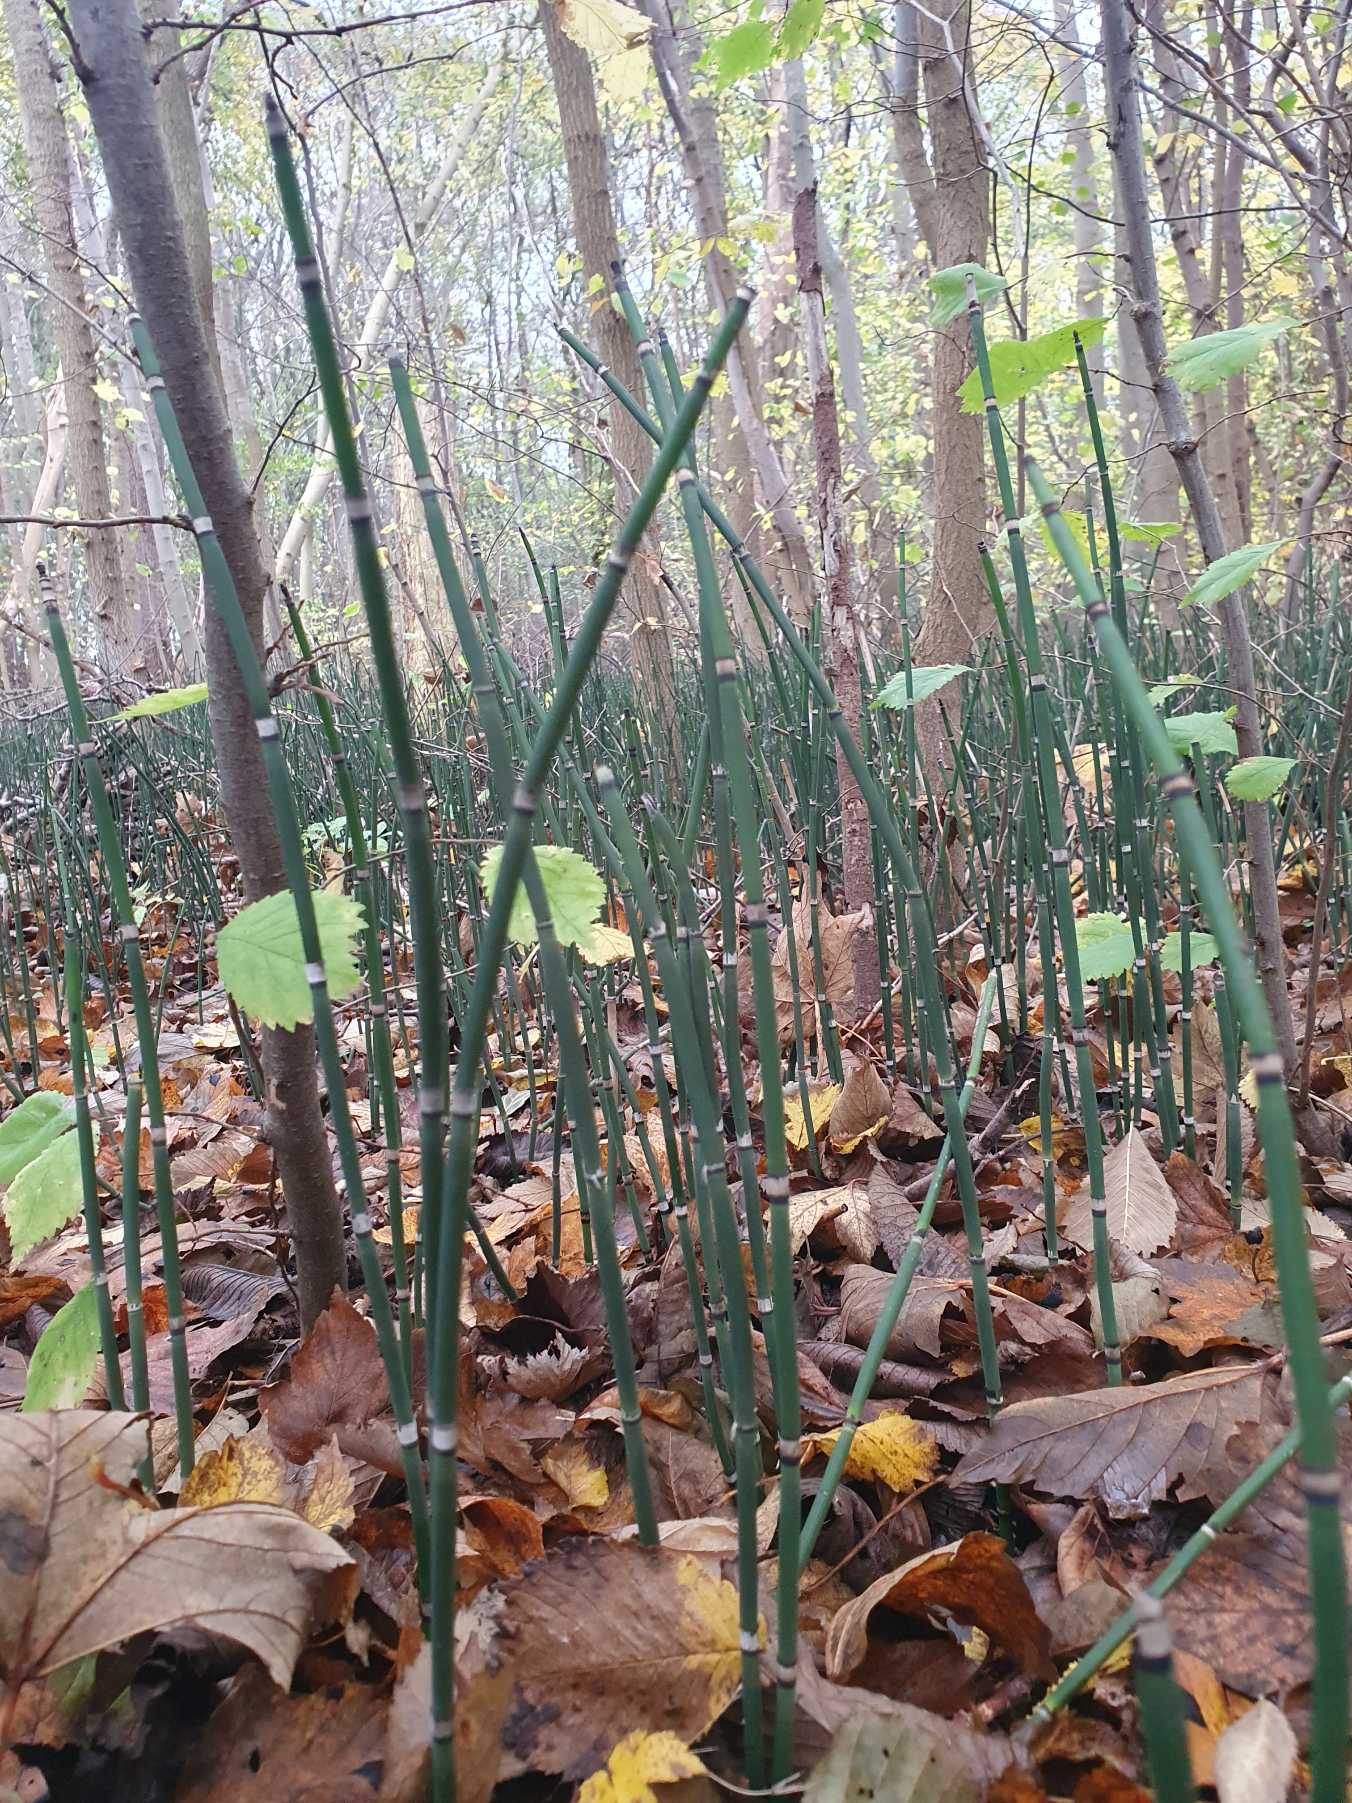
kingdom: Plantae
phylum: Tracheophyta
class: Polypodiopsida
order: Equisetales
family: Equisetaceae
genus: Equisetum
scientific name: Equisetum hyemale
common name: Skavgræs
